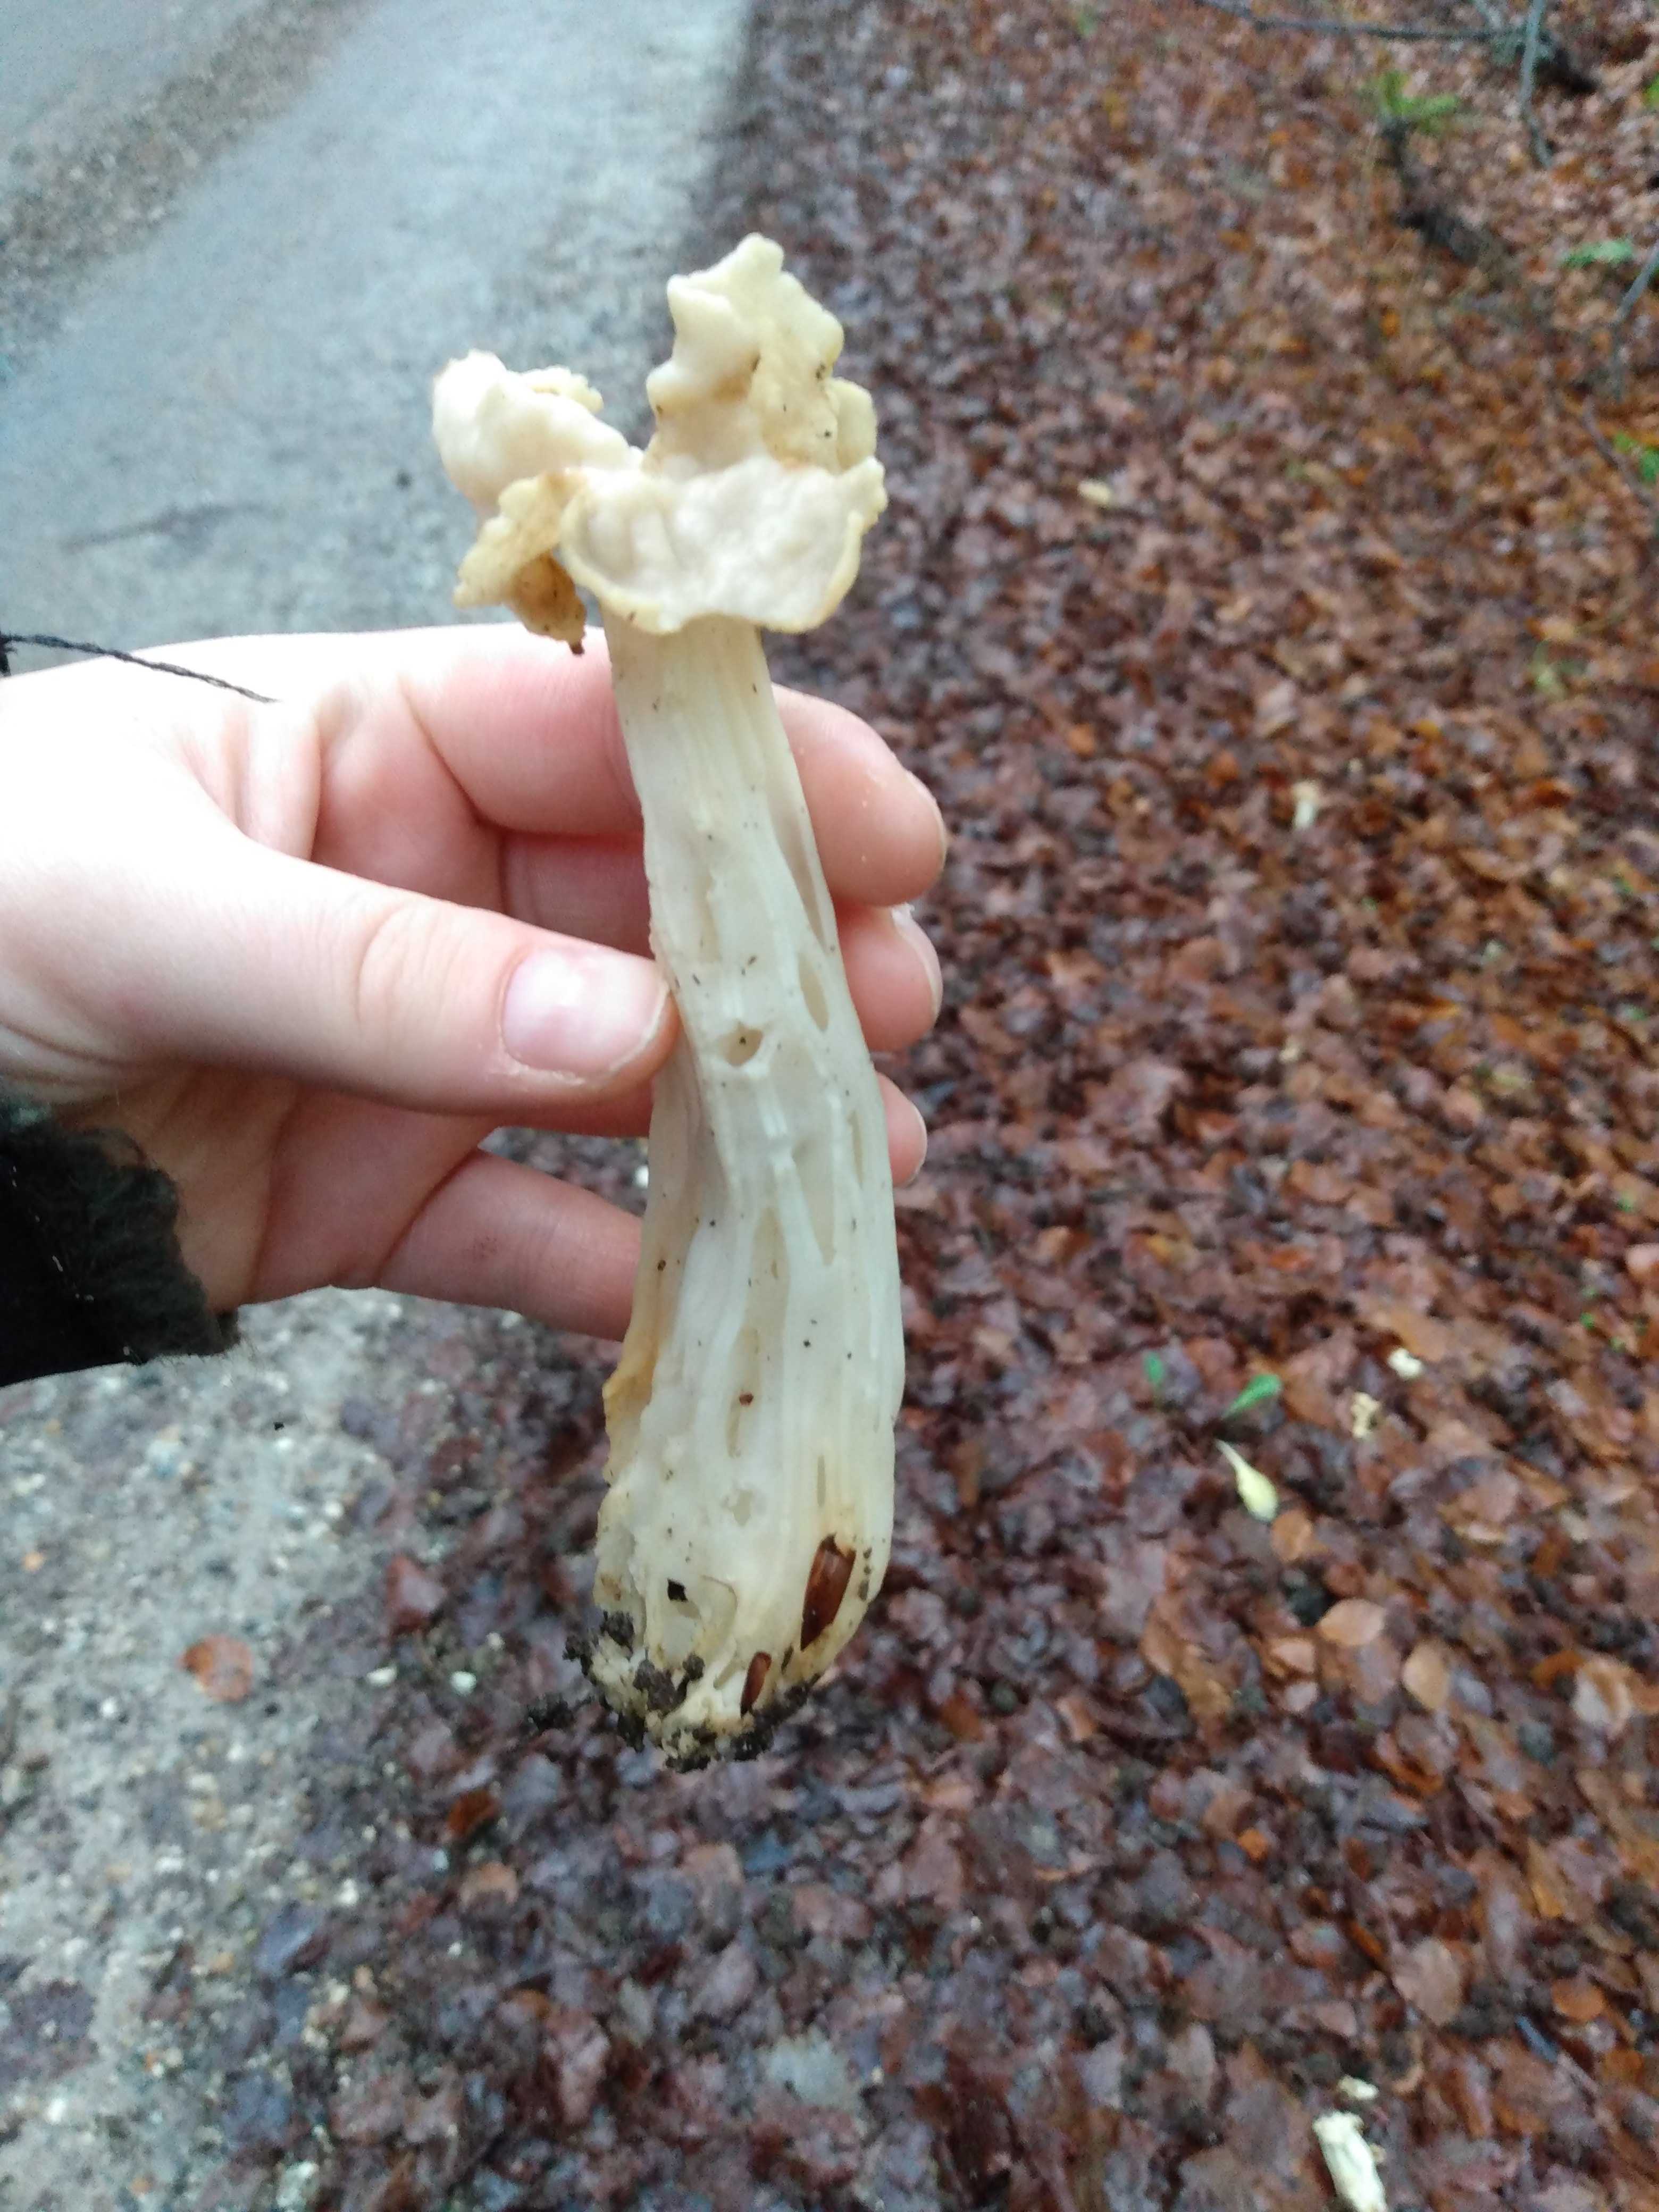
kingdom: Fungi
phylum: Ascomycota
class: Pezizomycetes
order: Pezizales
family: Helvellaceae
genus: Helvella
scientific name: Helvella crispa
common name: kruset foldhat
